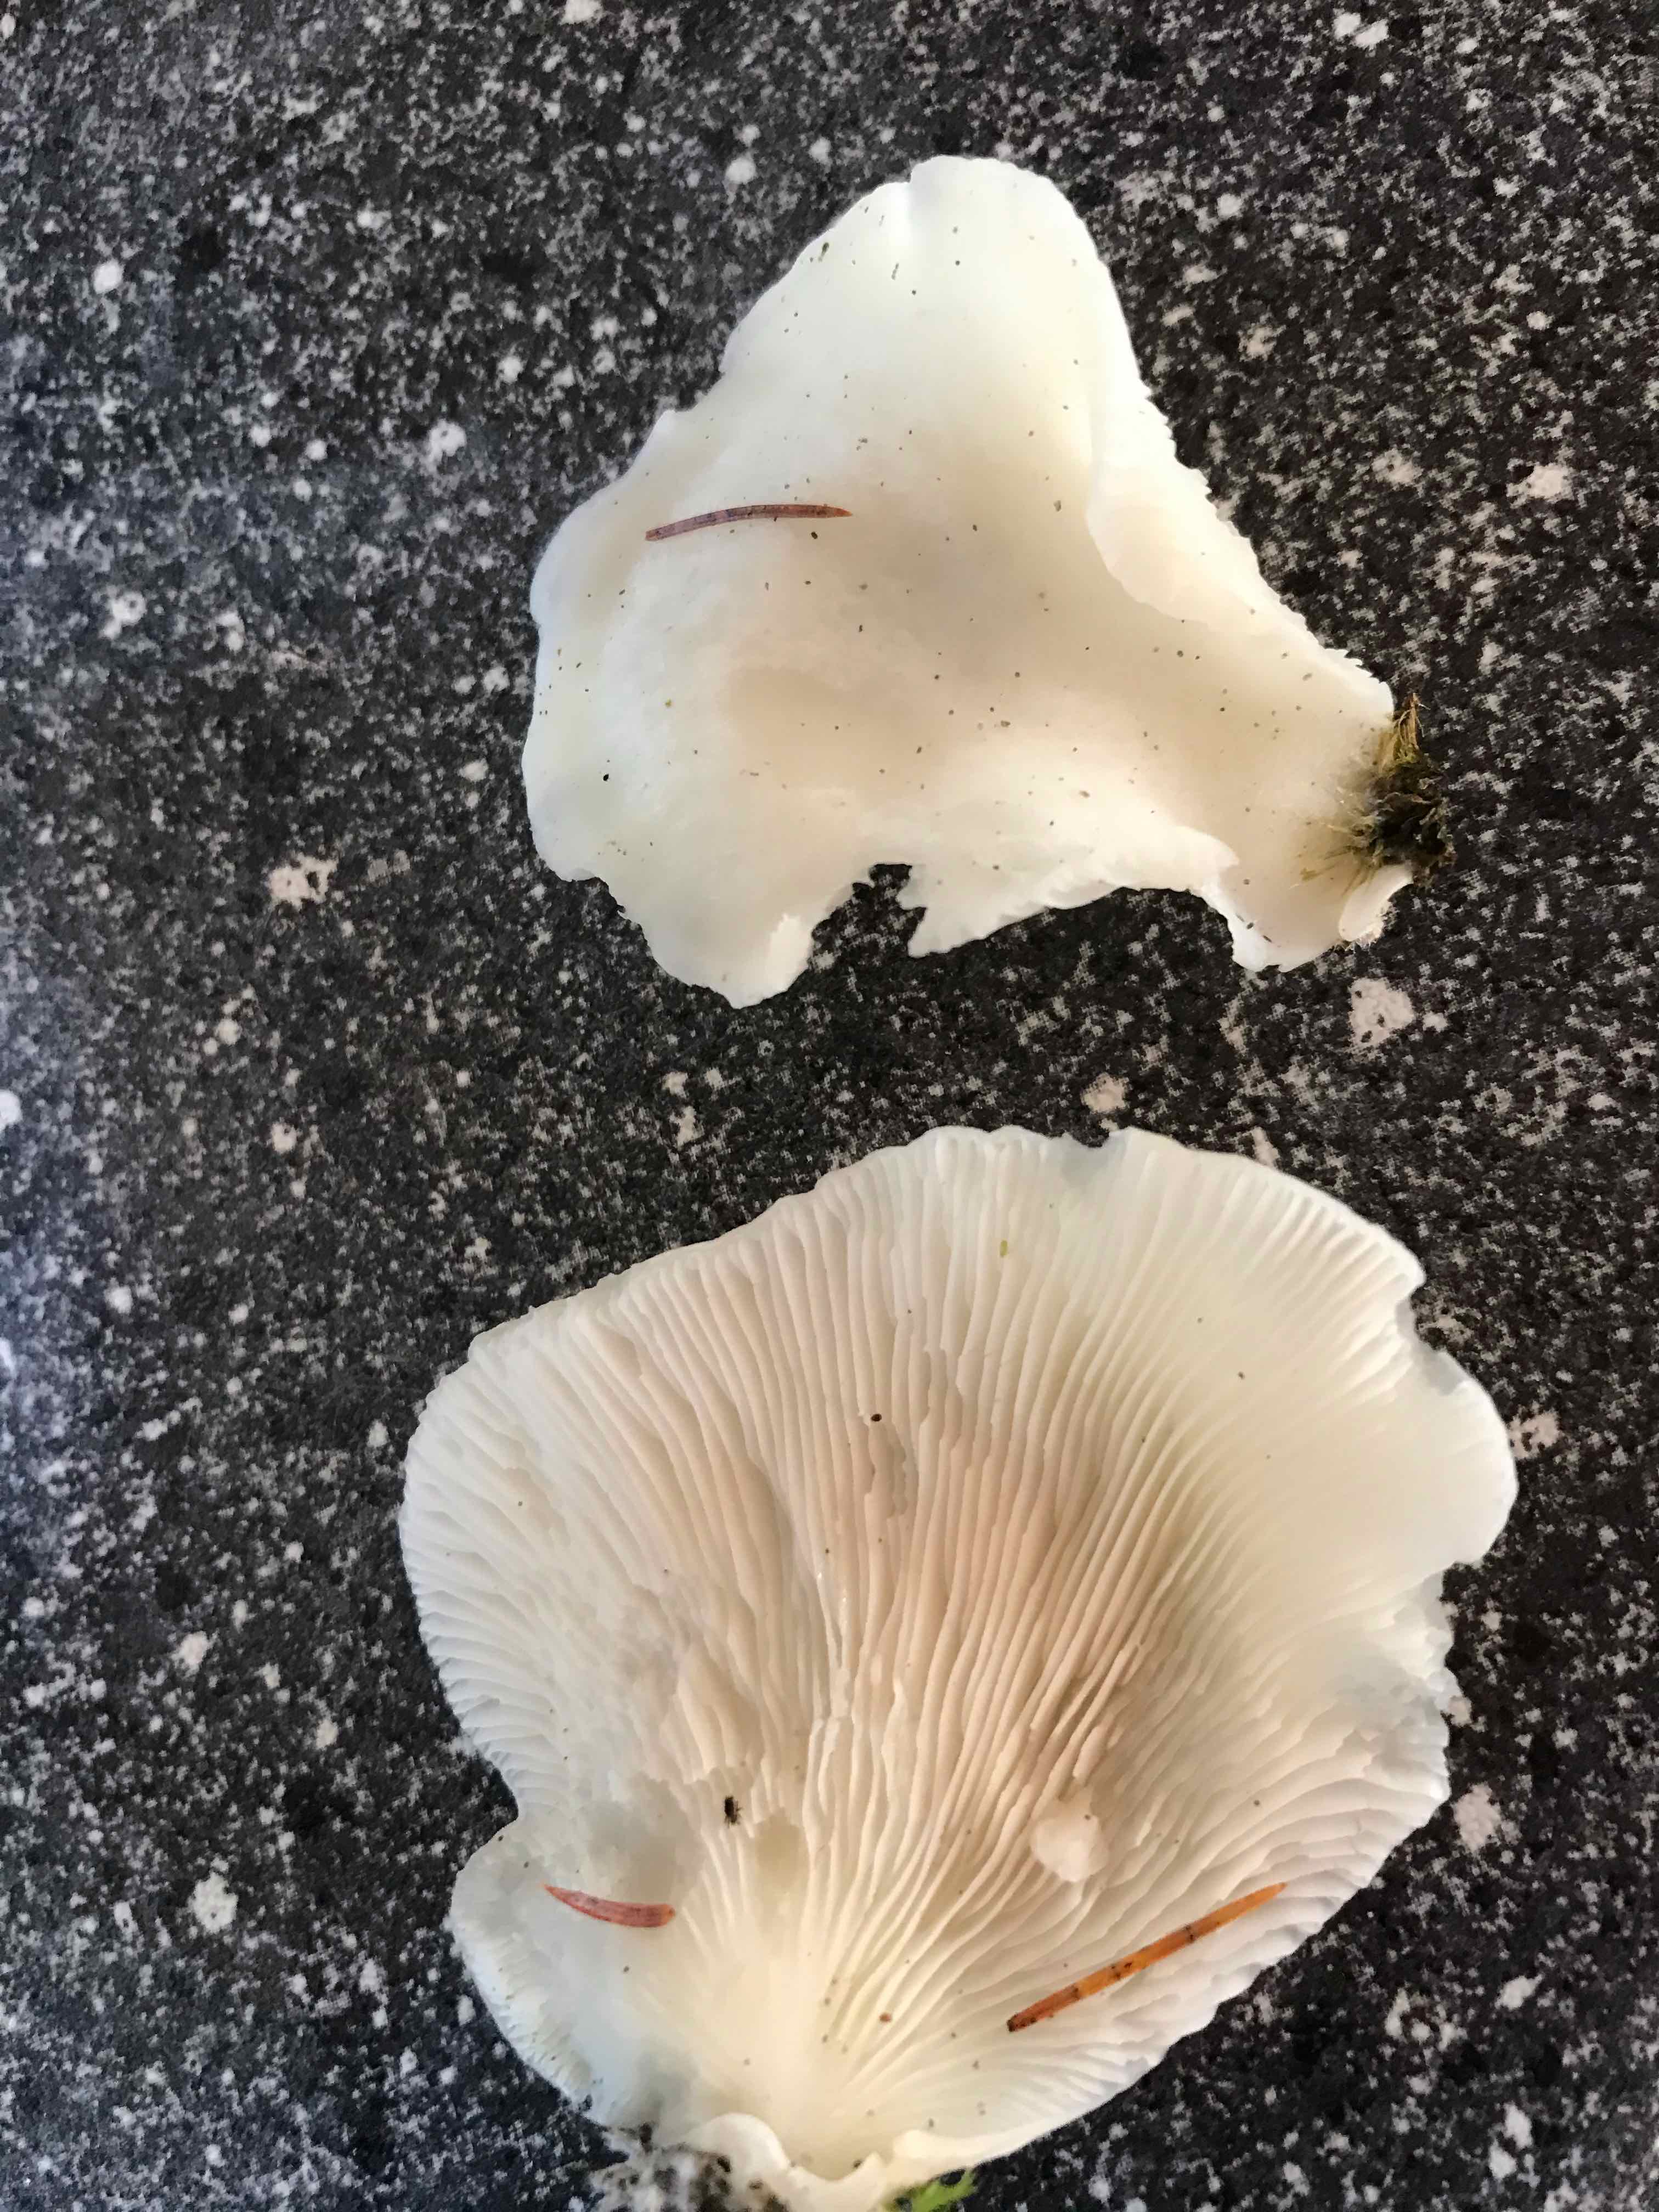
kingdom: Fungi
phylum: Basidiomycota
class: Agaricomycetes
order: Agaricales
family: Marasmiaceae
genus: Pleurocybella
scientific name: Pleurocybella porrigens
